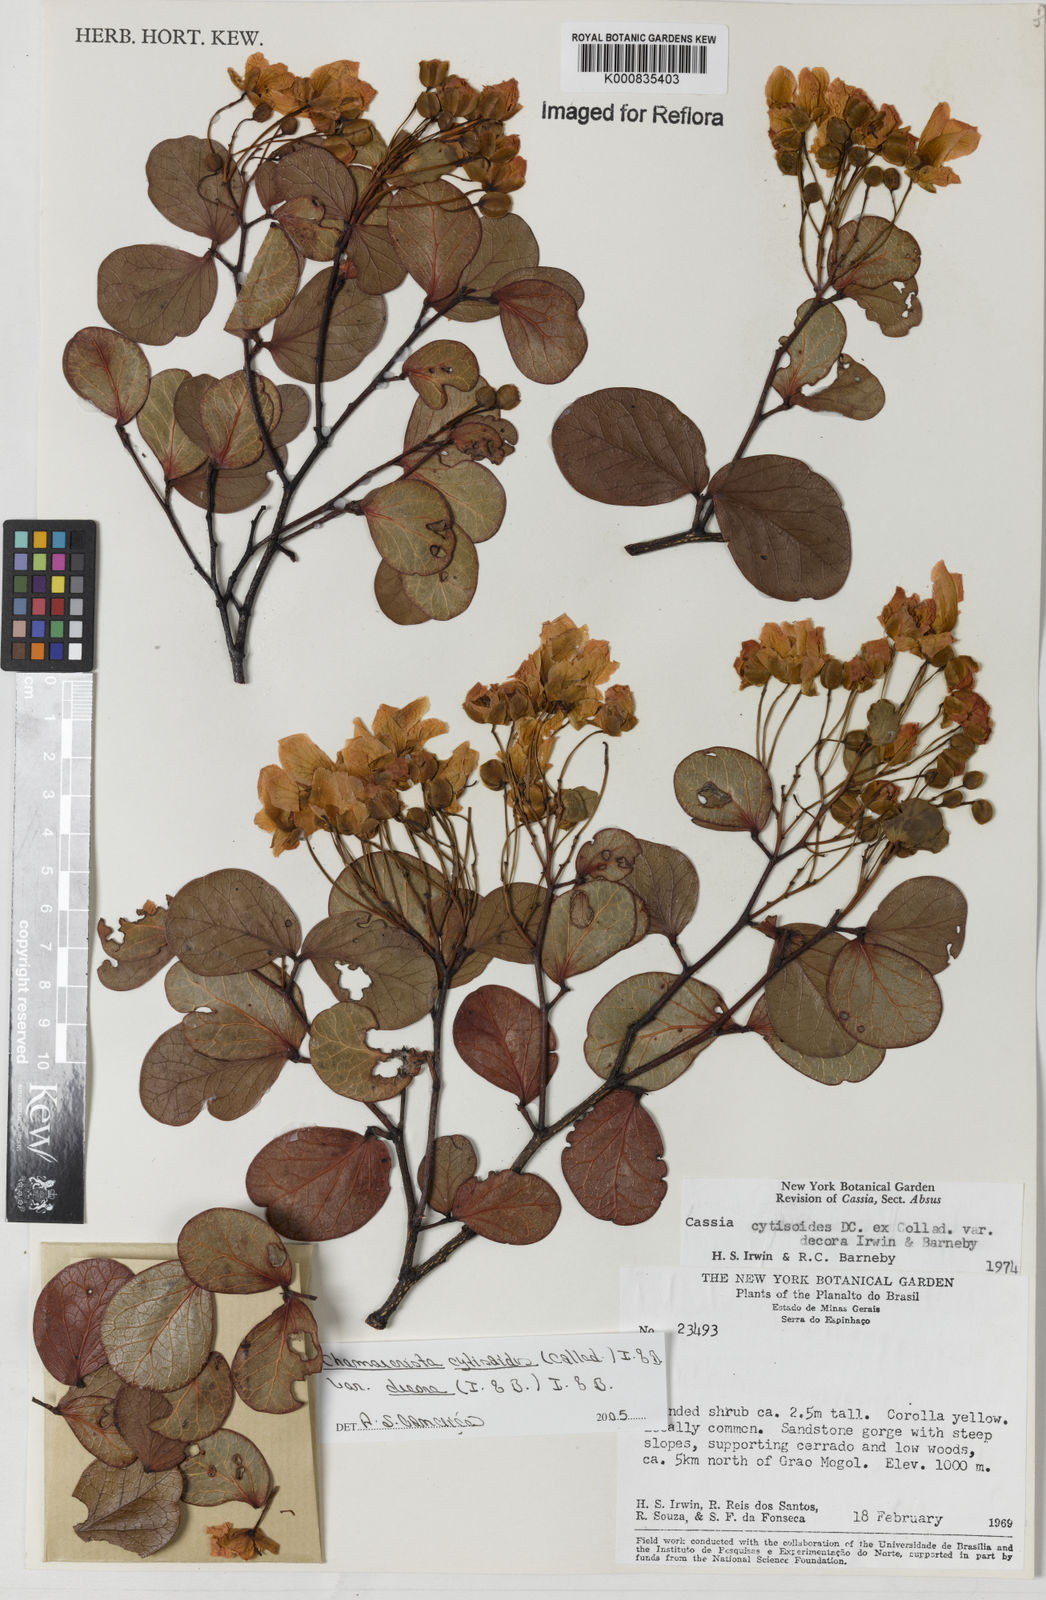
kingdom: Plantae
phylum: Tracheophyta
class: Magnoliopsida
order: Fabales
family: Fabaceae
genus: Chamaecrista
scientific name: Chamaecrista decora
